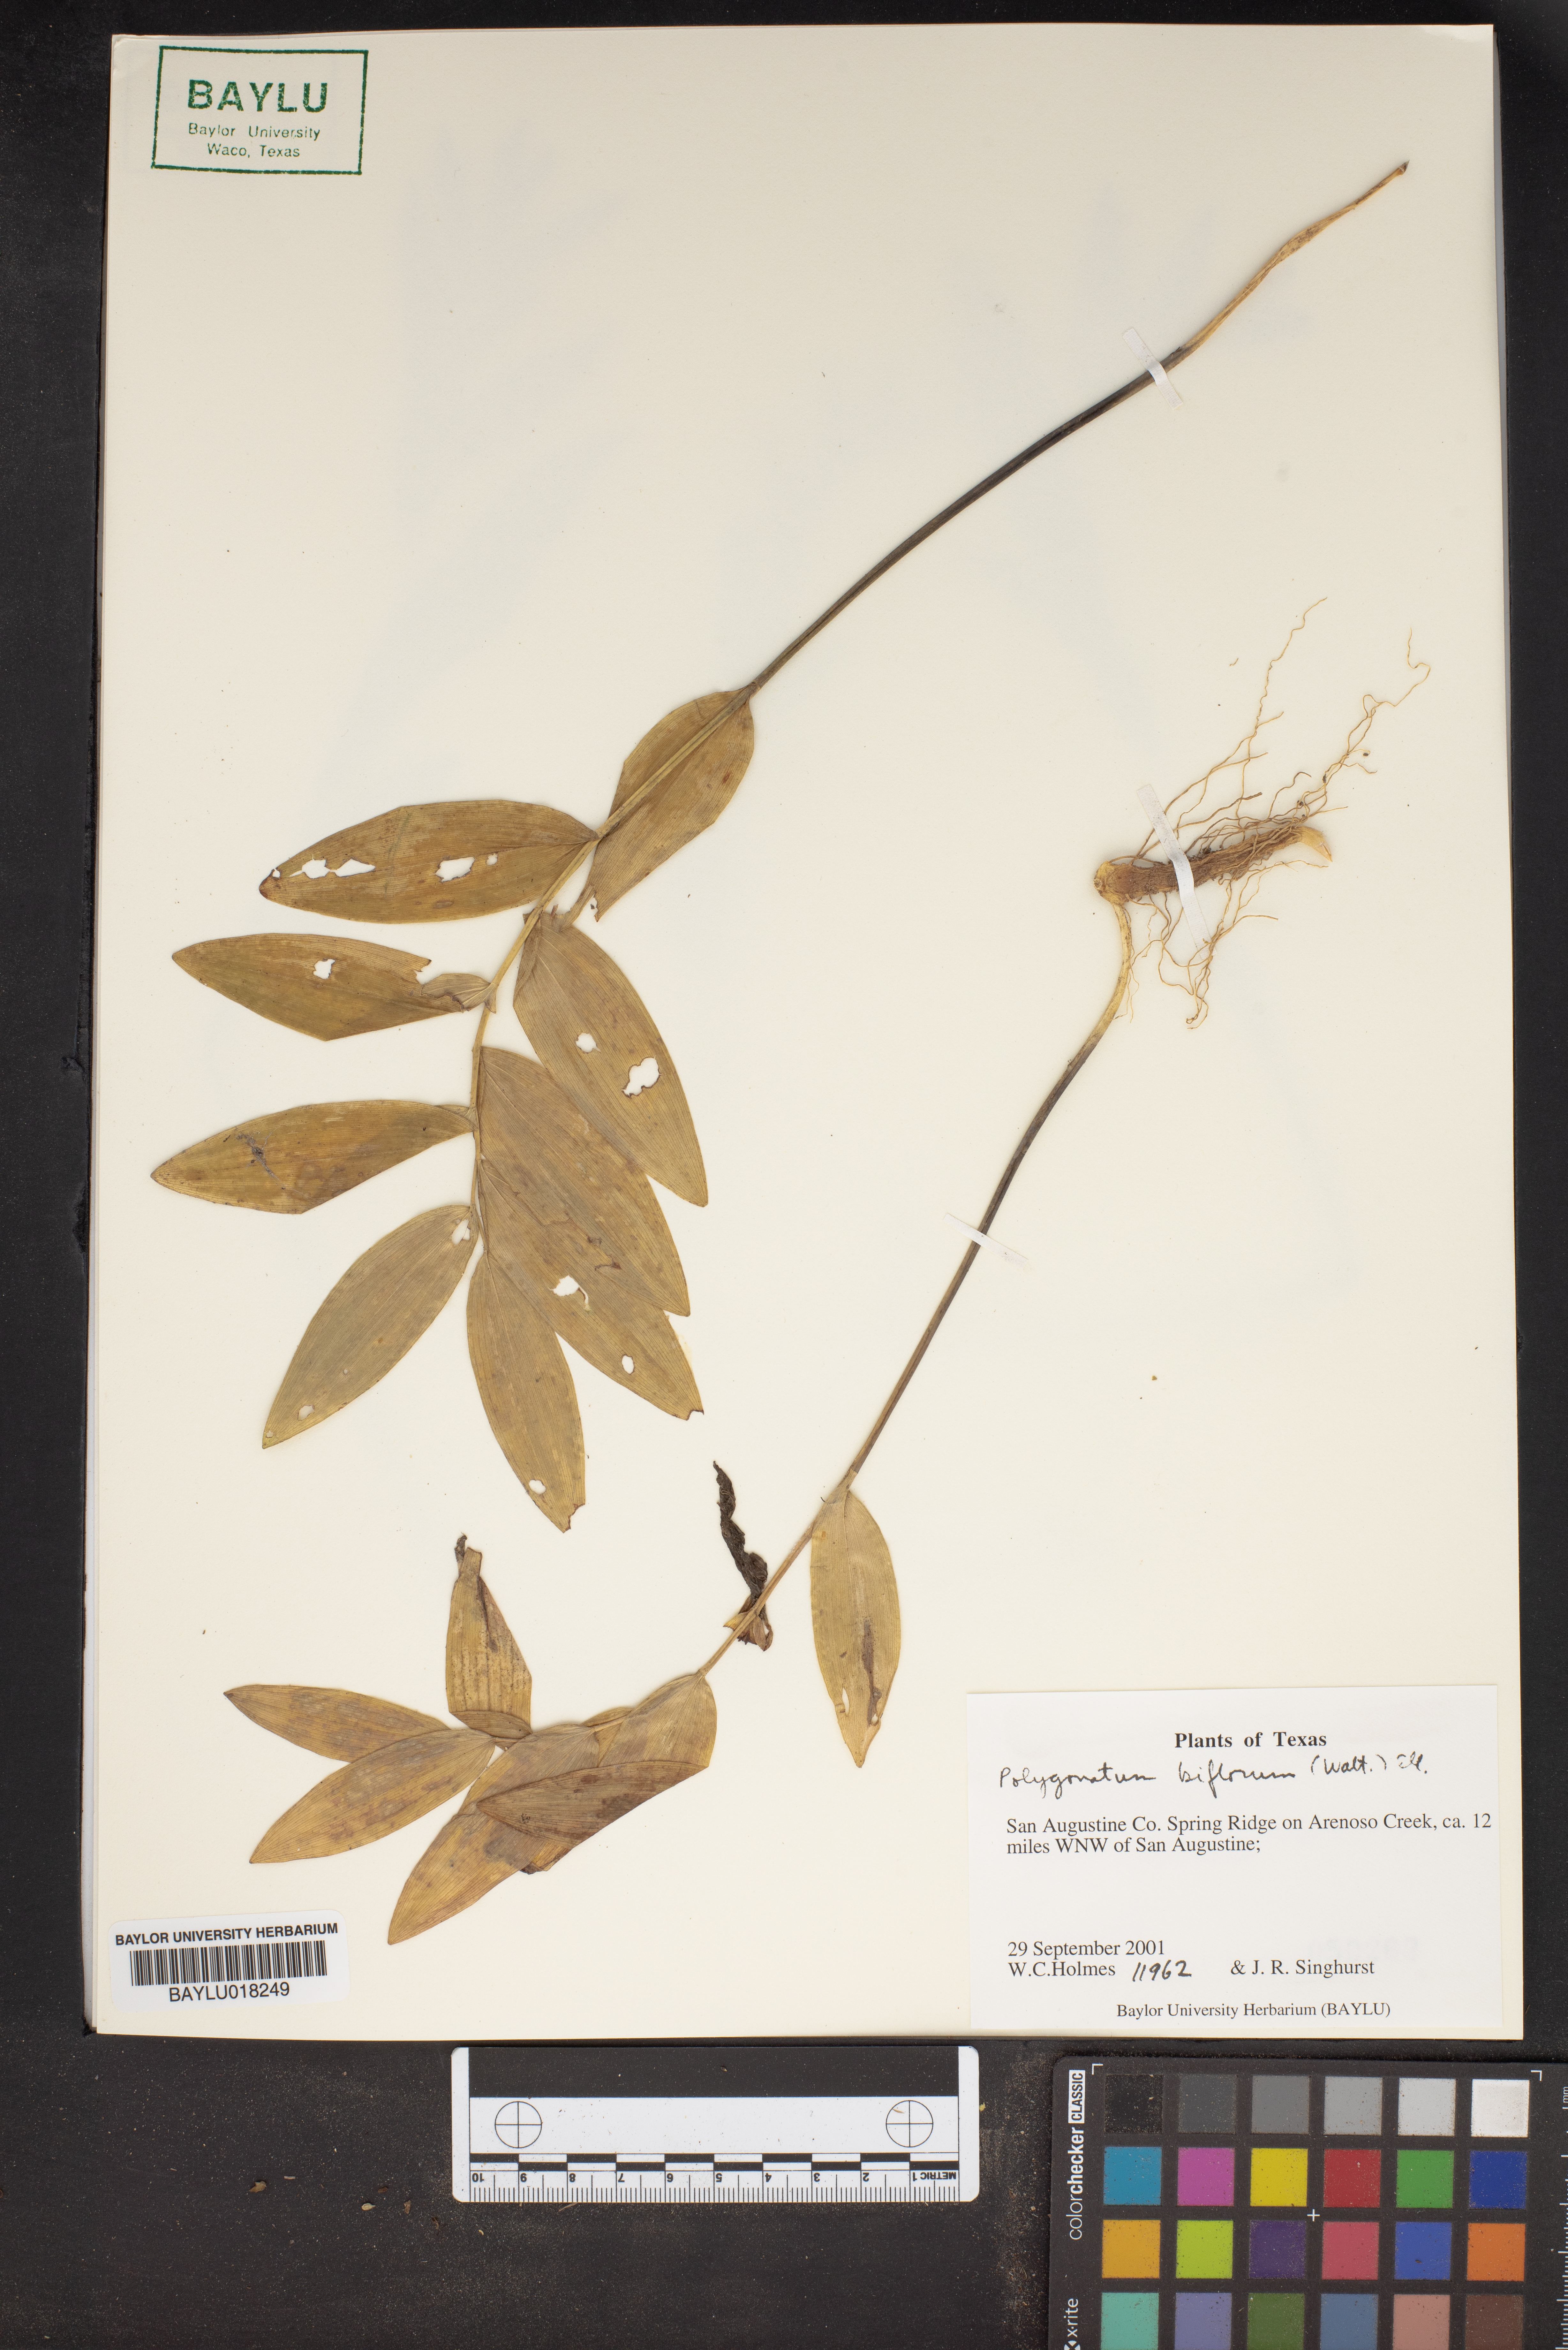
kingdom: Plantae
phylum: Tracheophyta
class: Liliopsida
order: Asparagales
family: Asparagaceae
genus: Polygonatum
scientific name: Polygonatum biflorum
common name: American solomon's-seal
